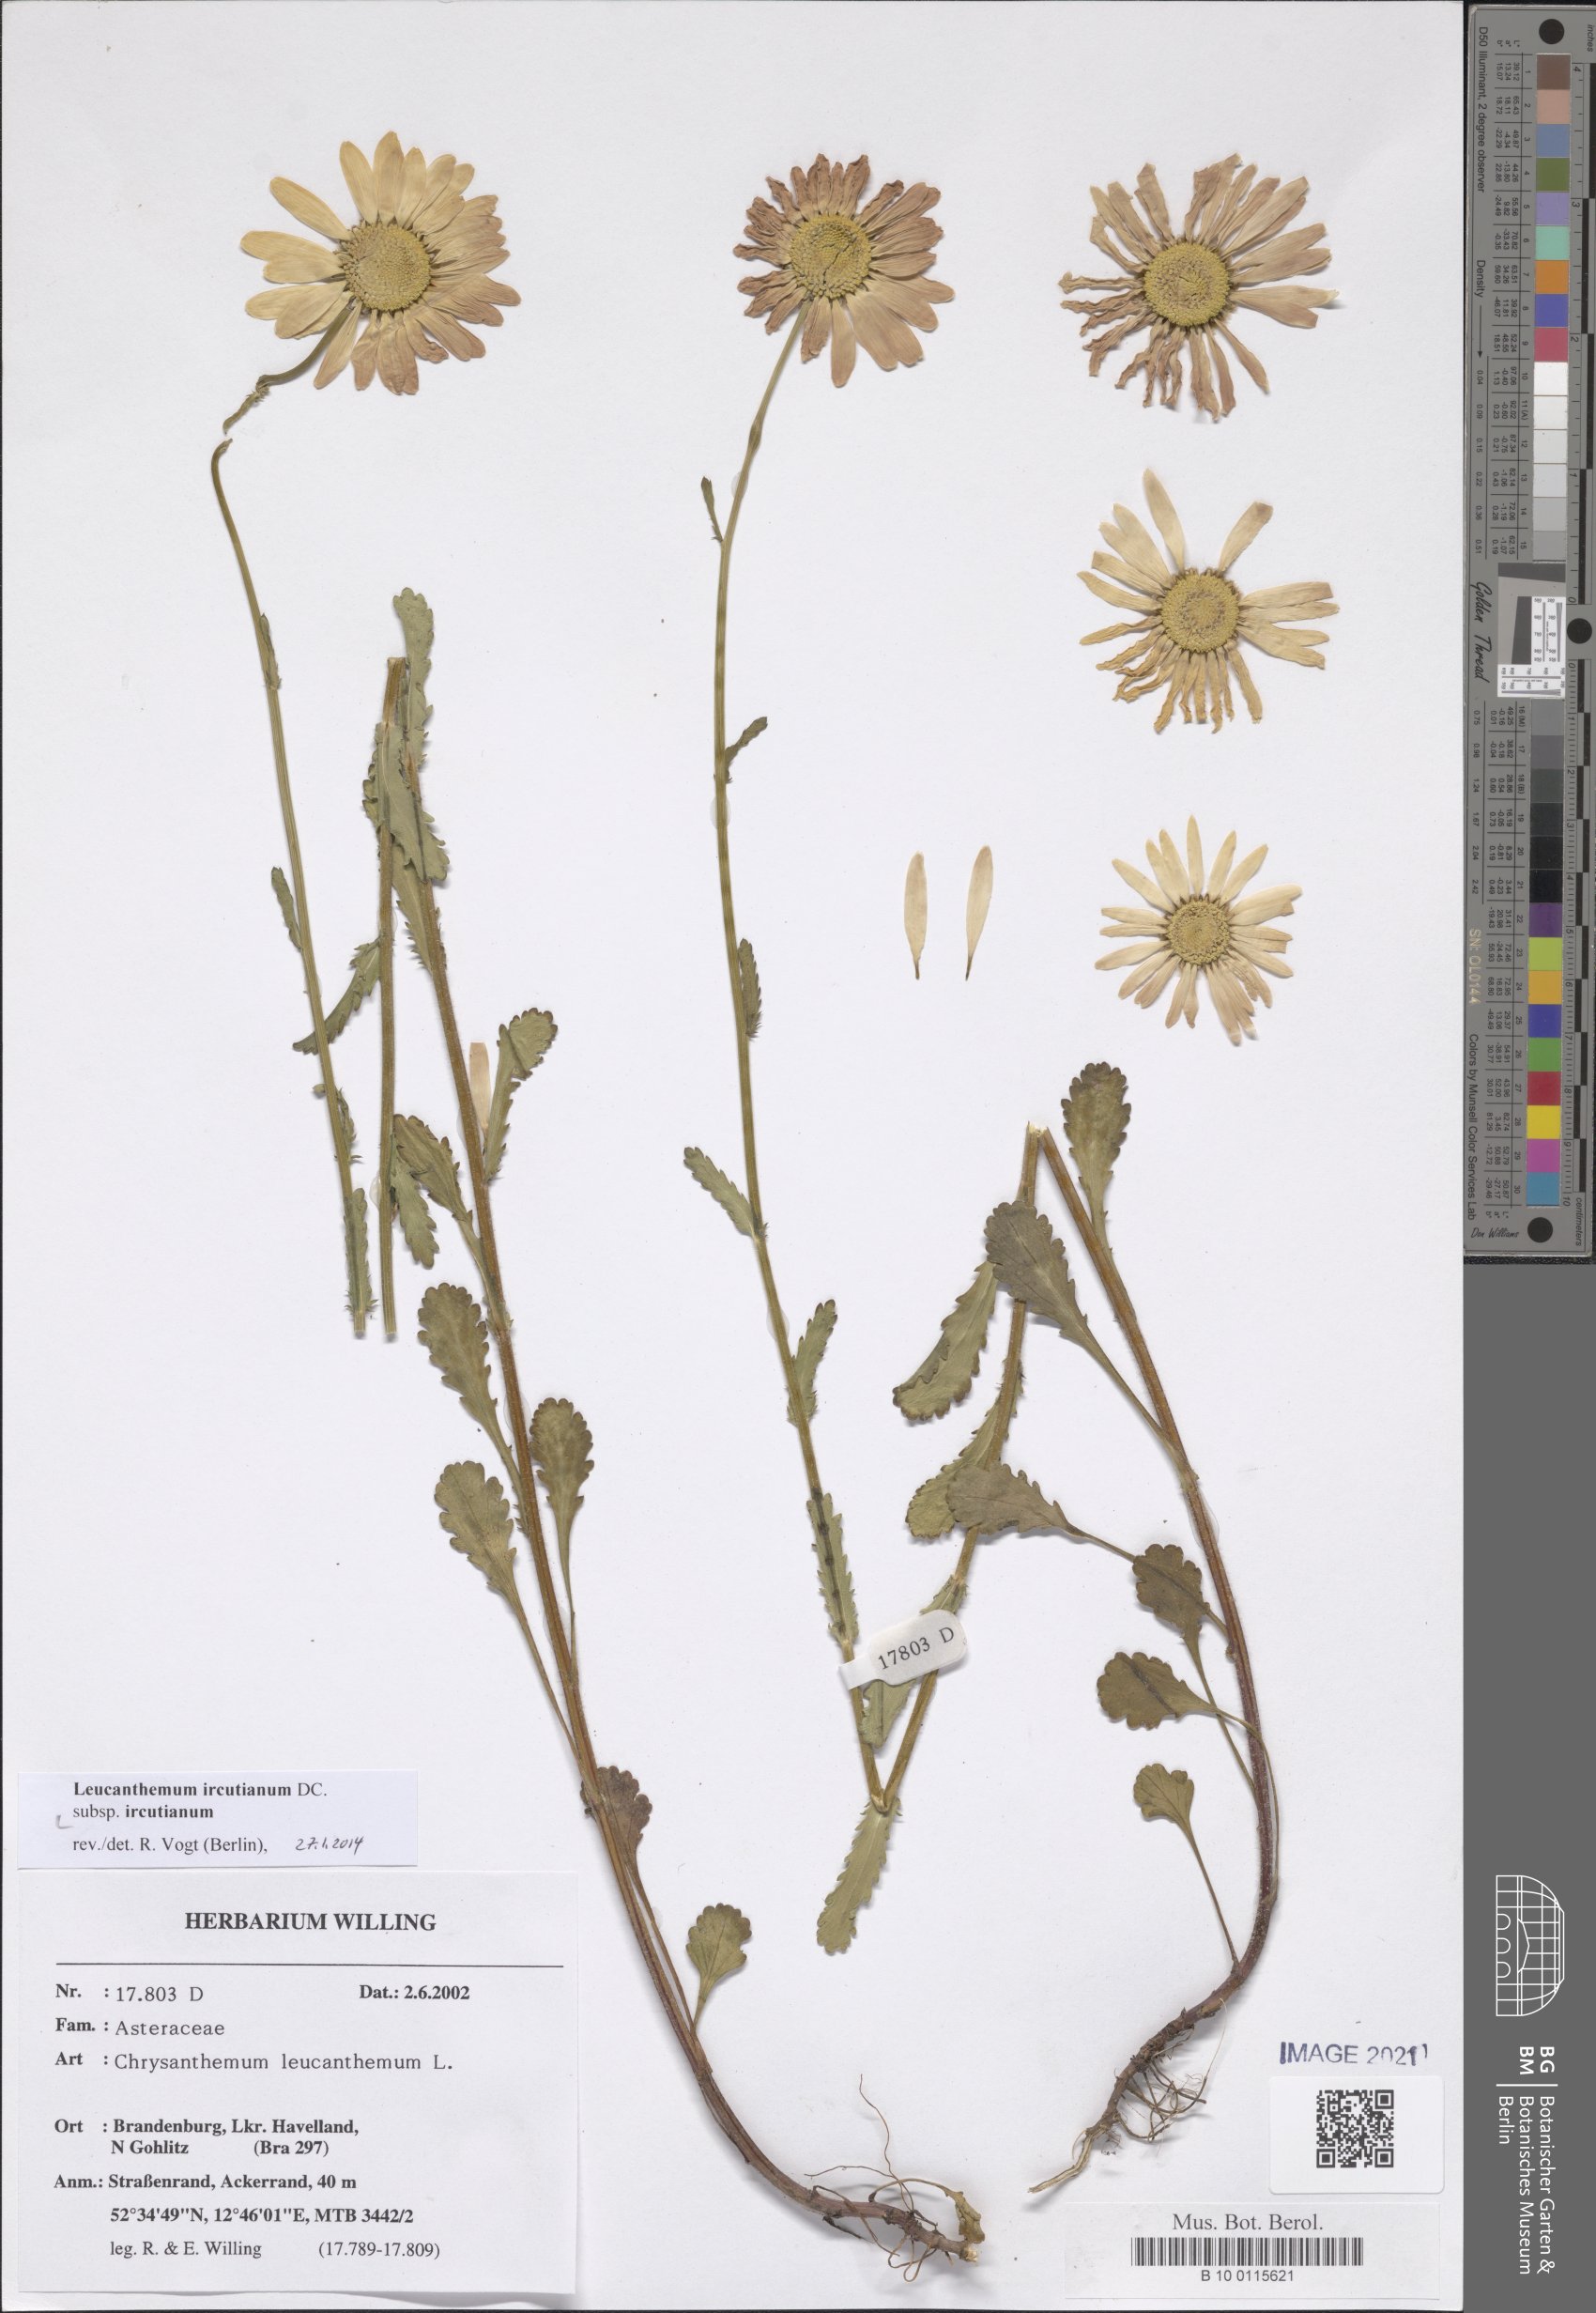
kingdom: Plantae
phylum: Tracheophyta
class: Magnoliopsida
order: Asterales
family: Asteraceae
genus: Leucanthemum
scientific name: Leucanthemum ircutianum
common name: Daisy
